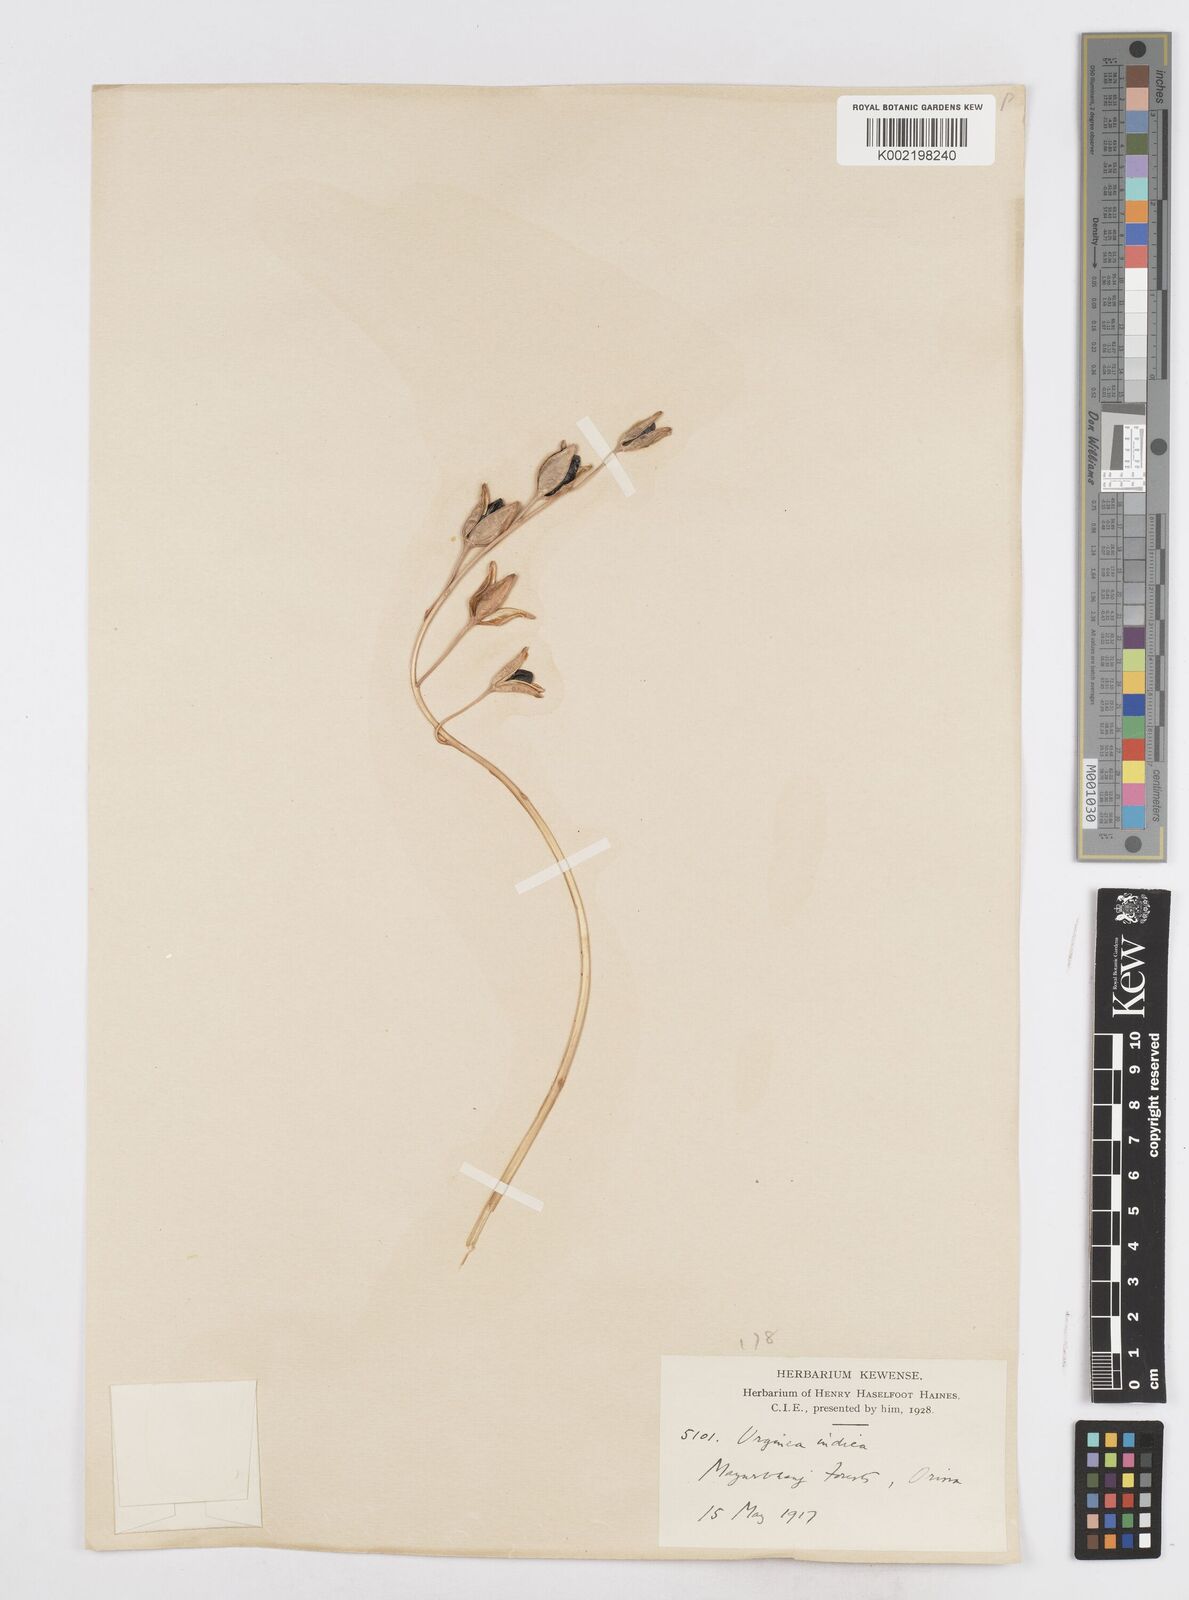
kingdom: Plantae
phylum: Tracheophyta
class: Liliopsida
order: Asparagales
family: Asparagaceae
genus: Drimia
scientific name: Drimia indica
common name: Indian-squill
